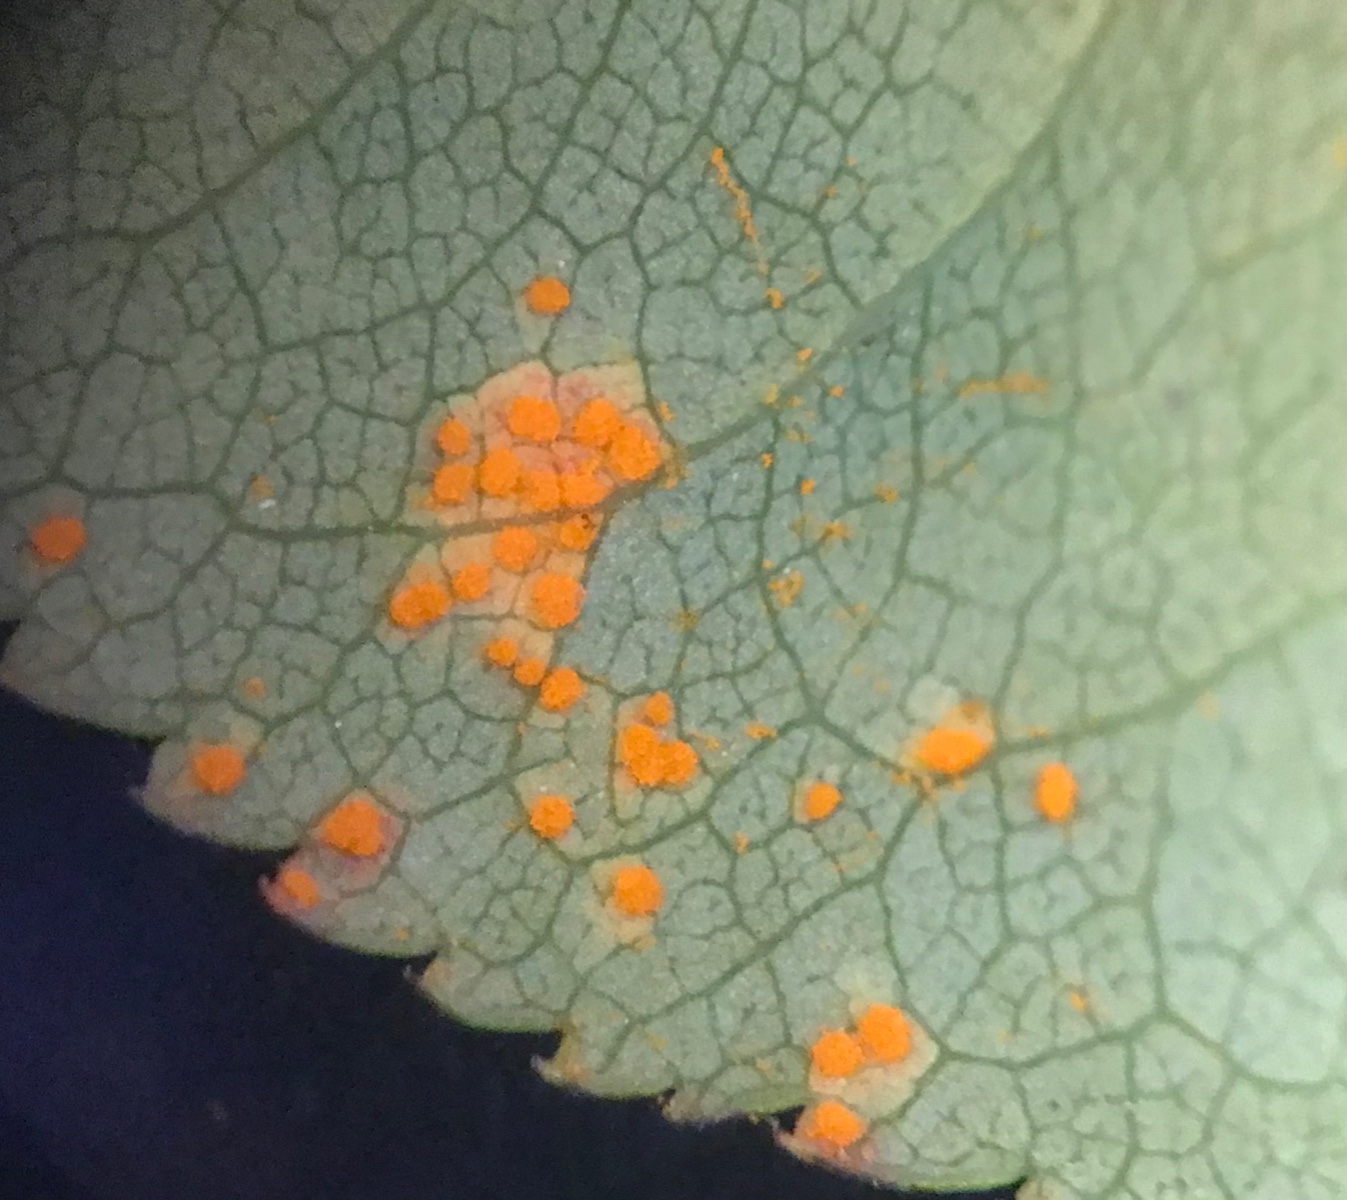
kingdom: Fungi
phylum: Basidiomycota
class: Pucciniomycetes
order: Pucciniales
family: Phragmidiaceae
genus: Phragmidium
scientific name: Phragmidium tuberculatum
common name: Rose rust
